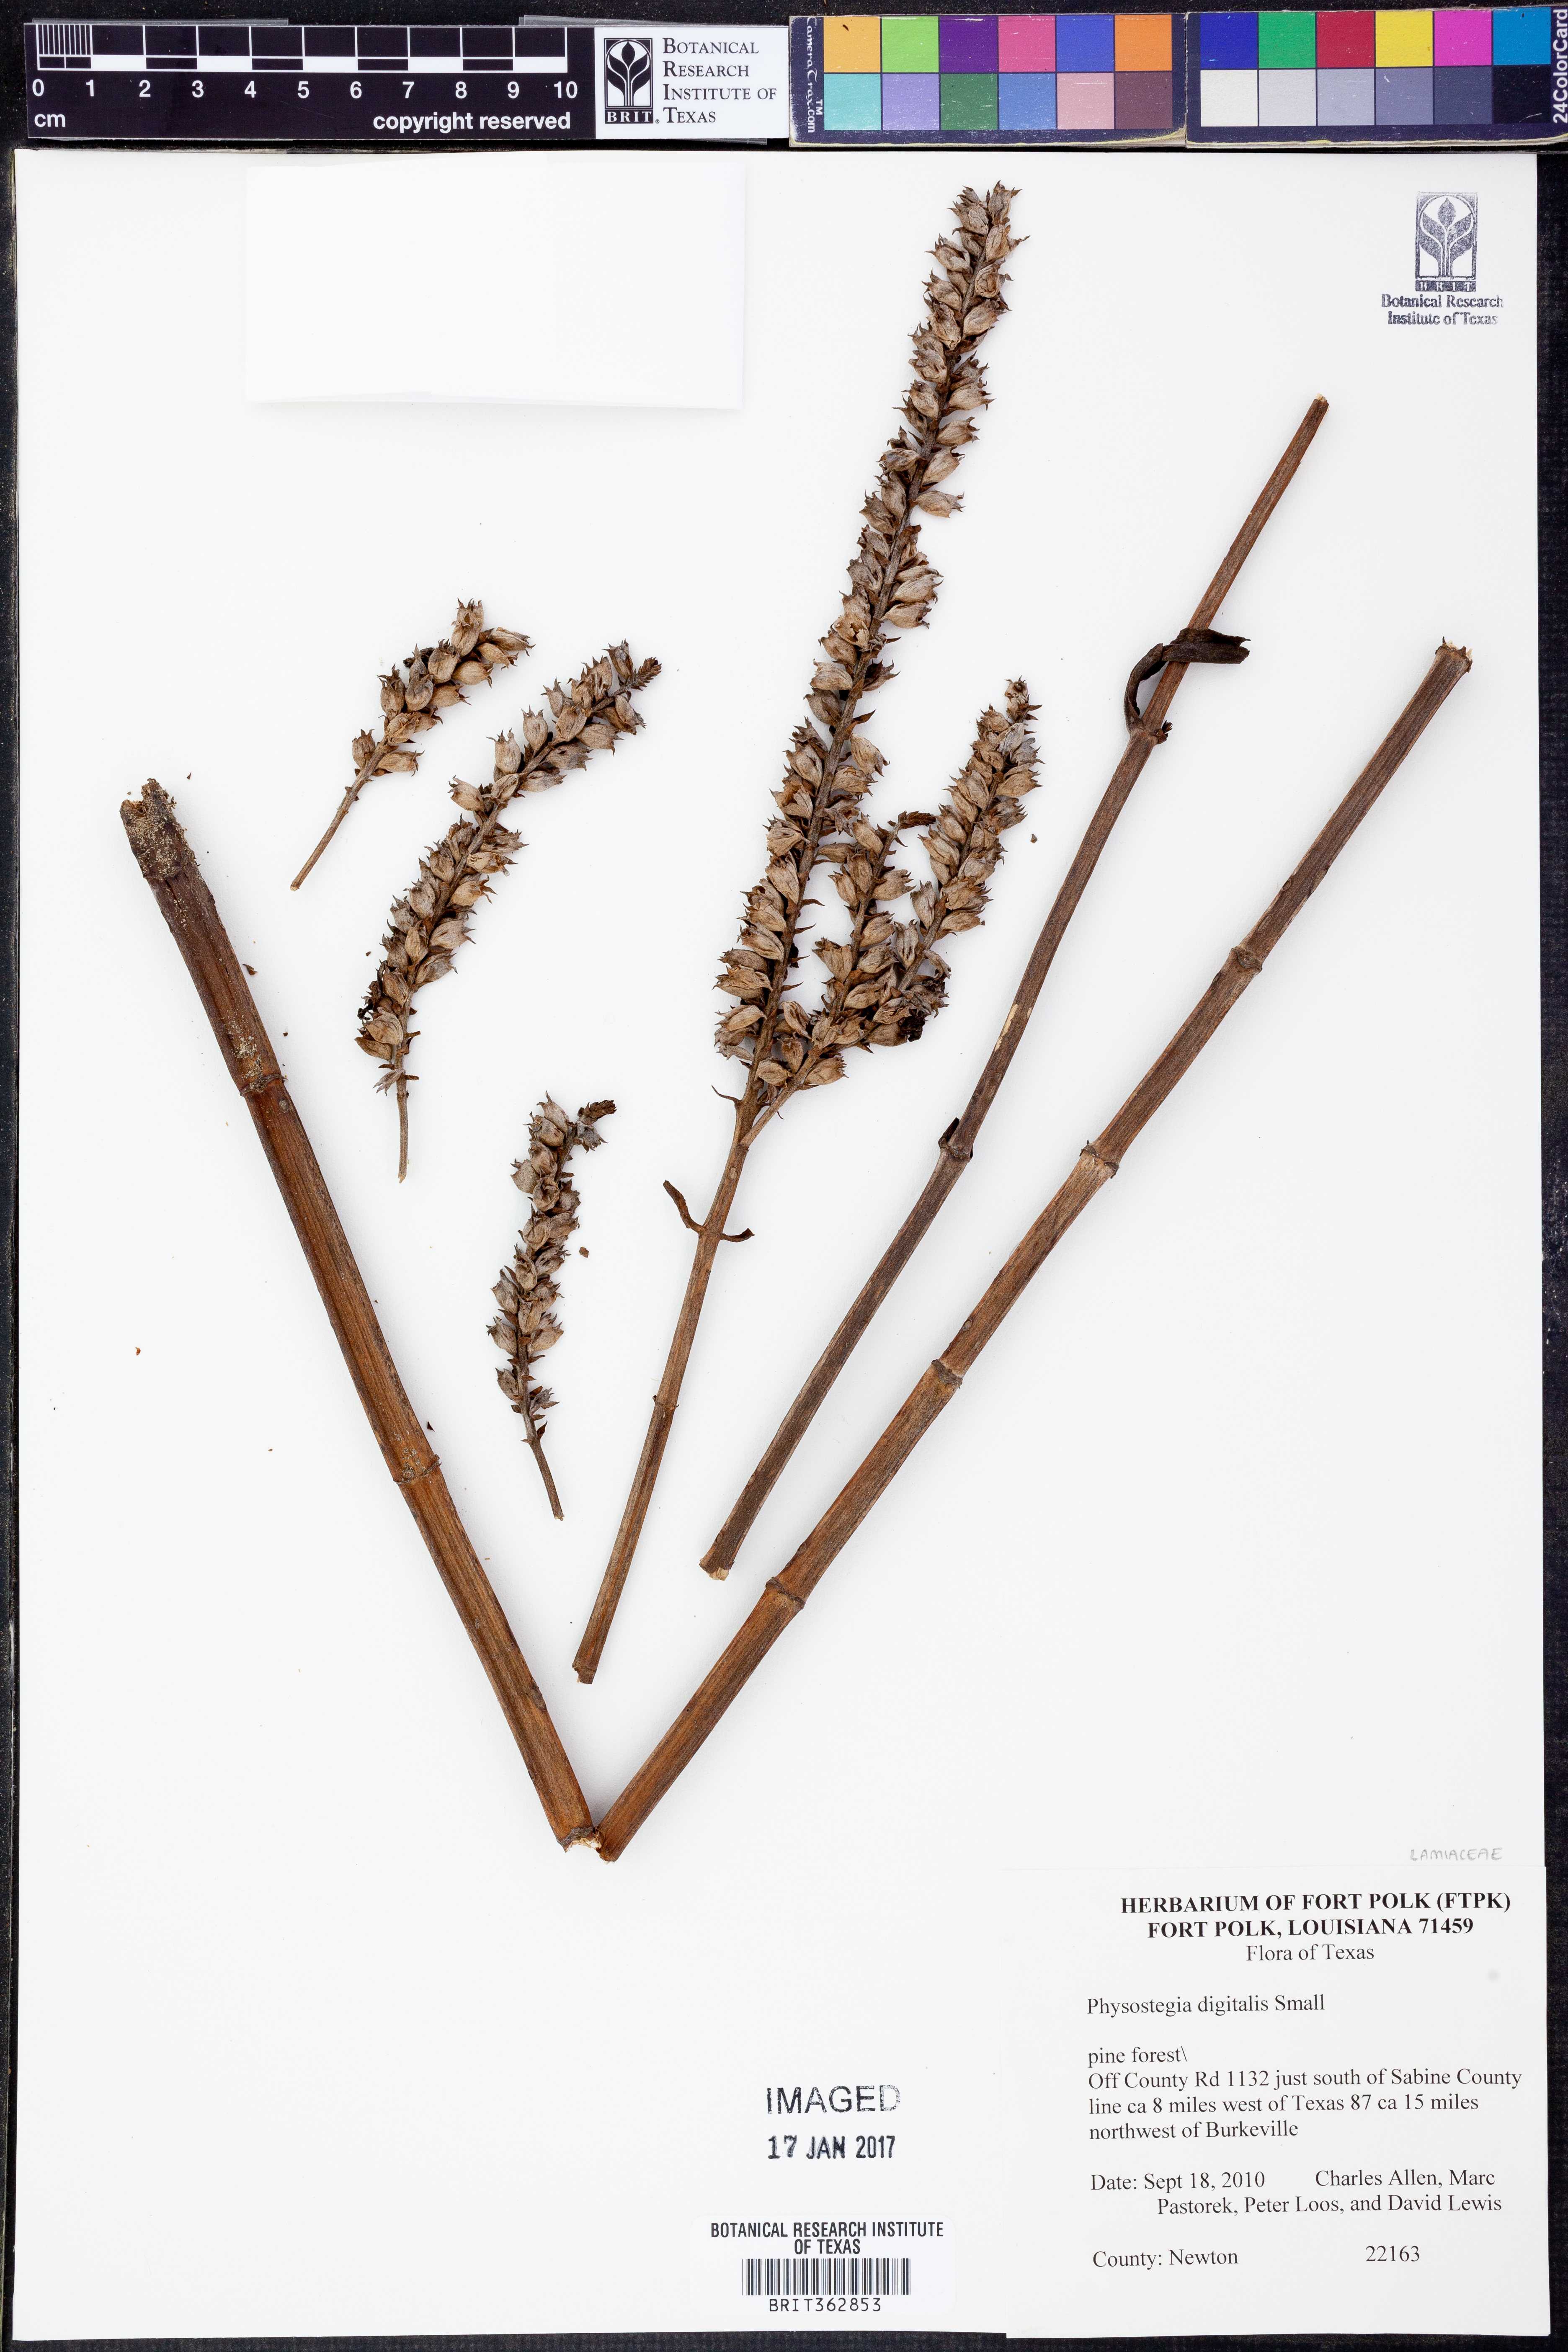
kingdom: Plantae
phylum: Tracheophyta
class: Magnoliopsida
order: Lamiales
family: Lamiaceae
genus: Physostegia
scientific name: Physostegia digitalis
